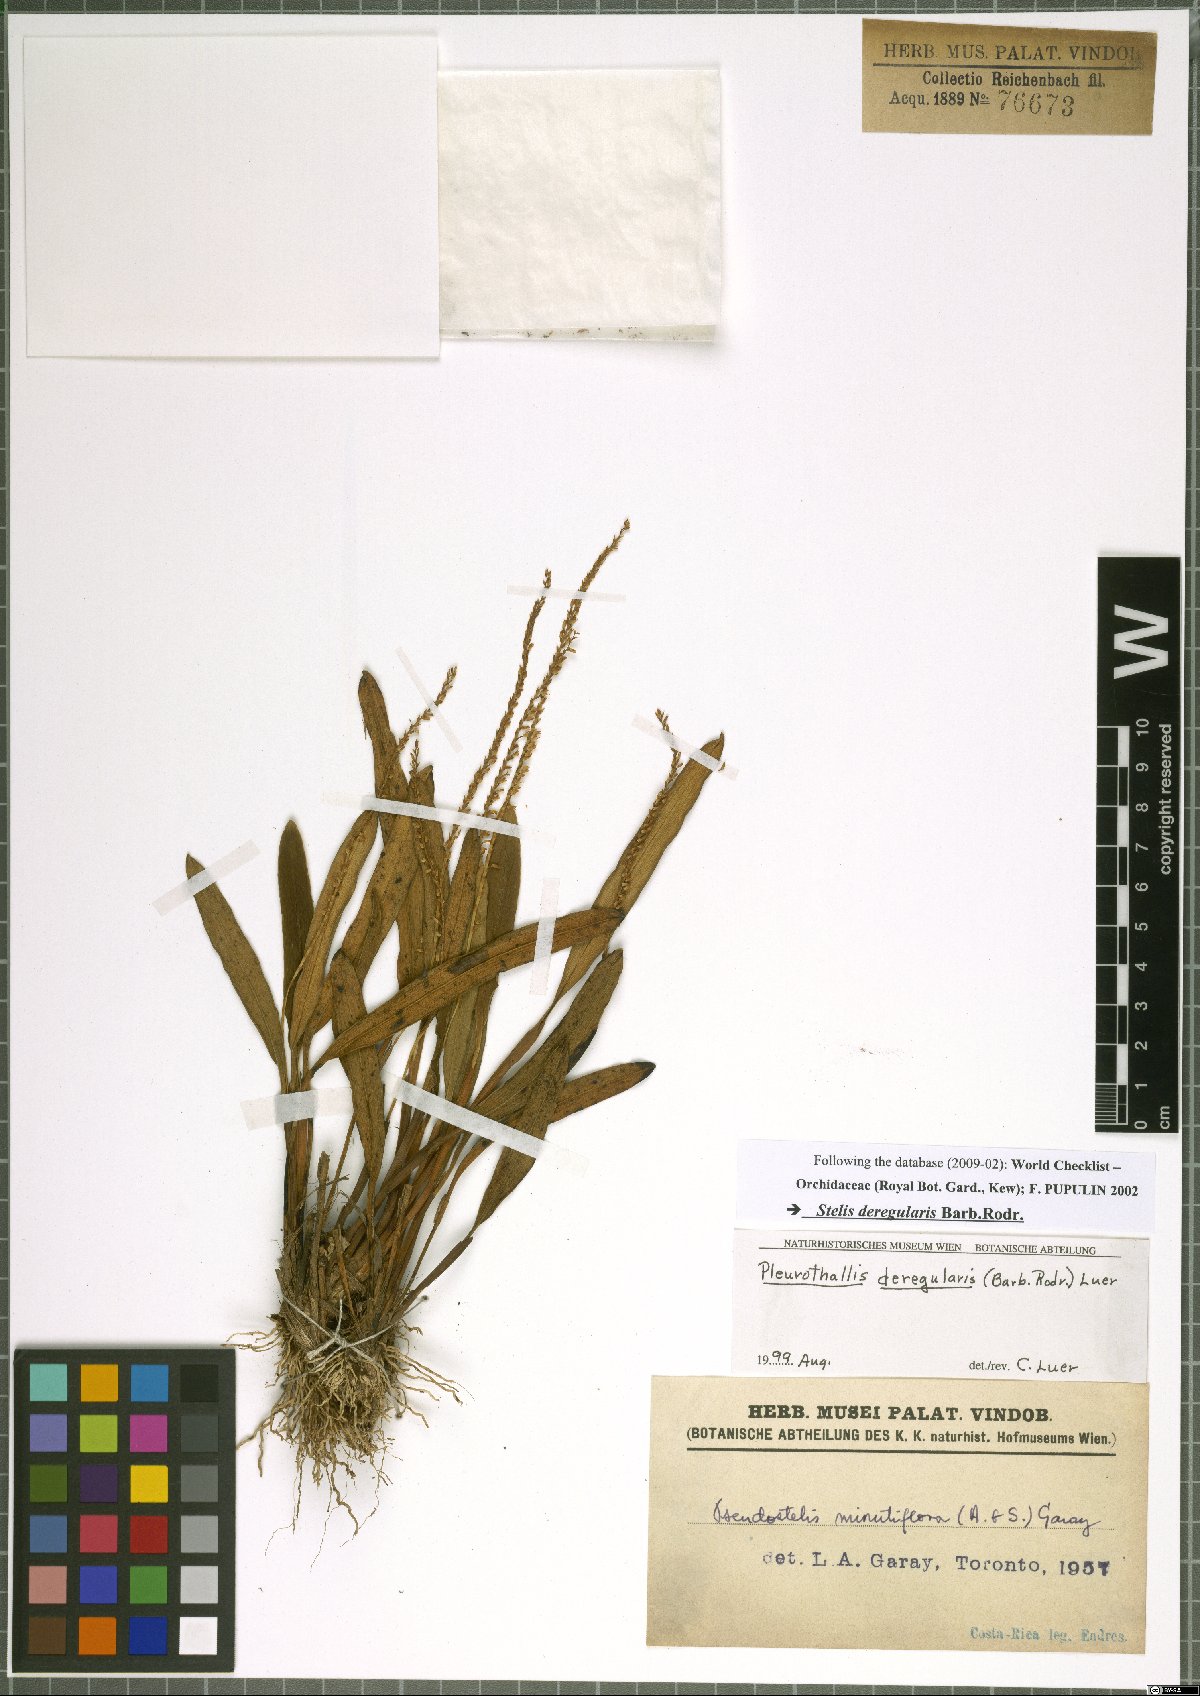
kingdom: Plantae
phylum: Tracheophyta
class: Liliopsida
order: Asparagales
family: Orchidaceae
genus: Stelis
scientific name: Stelis deregularis
